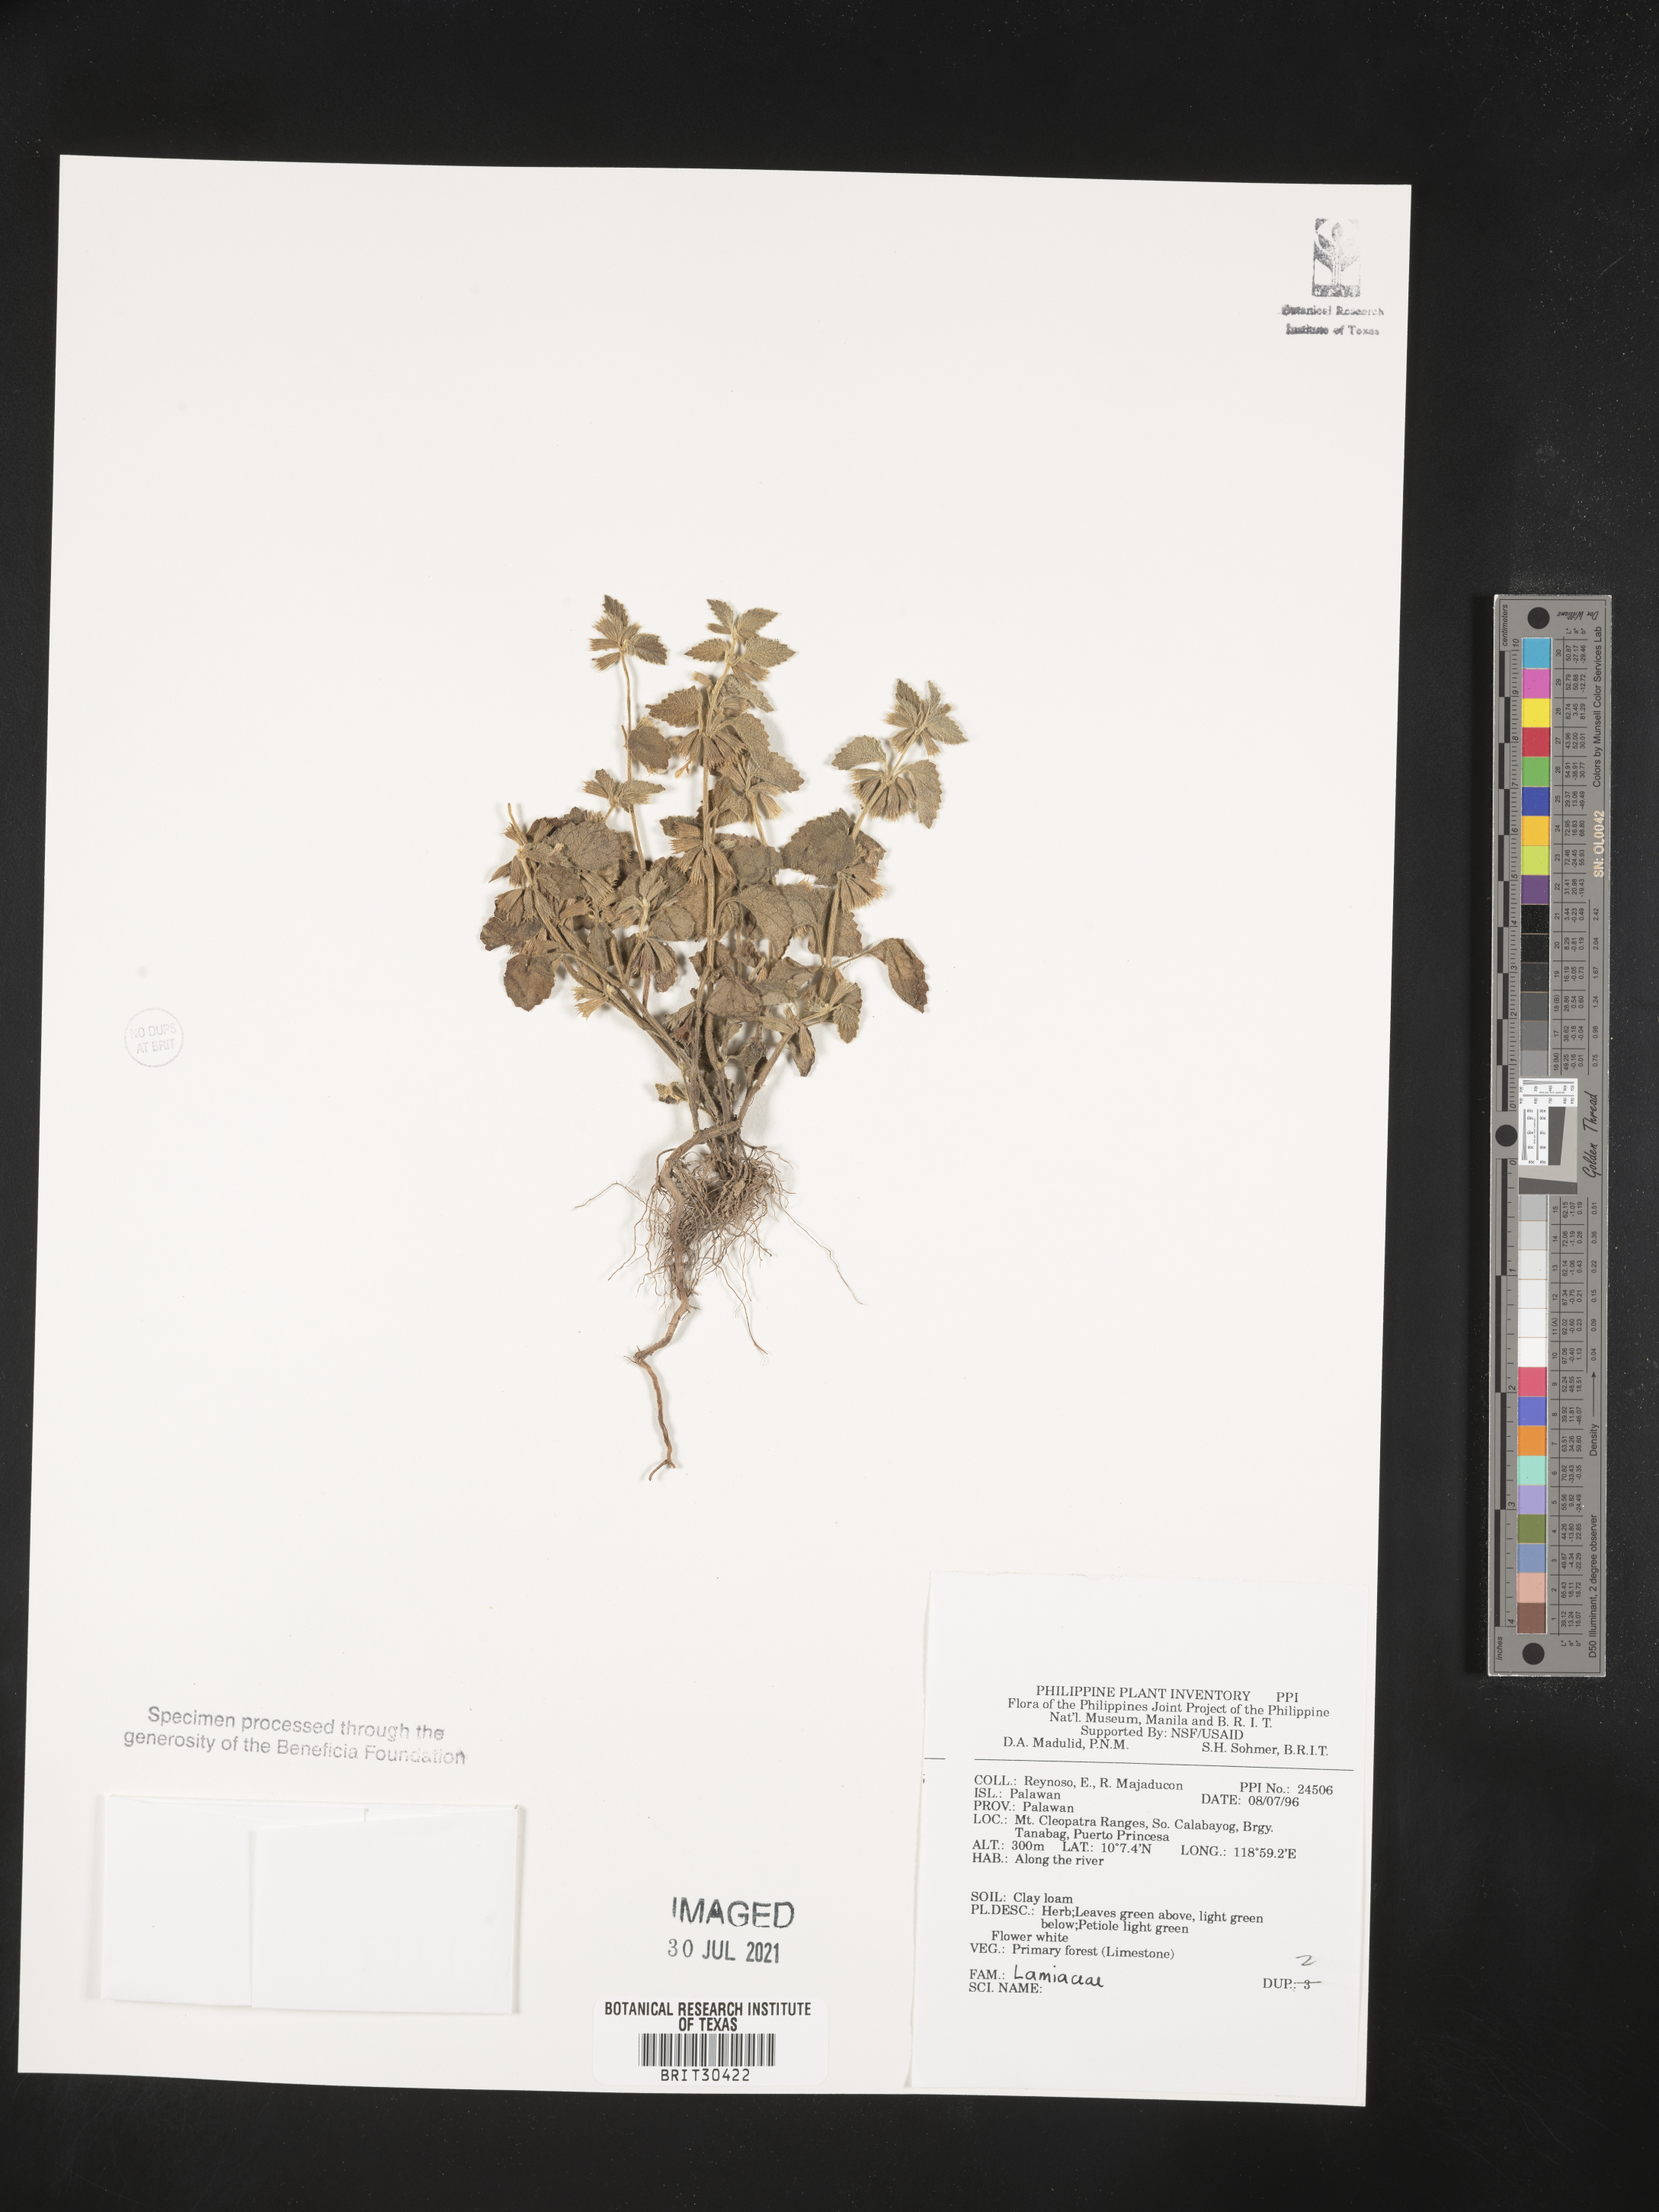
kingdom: Plantae
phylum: Tracheophyta
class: Magnoliopsida
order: Lamiales
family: Lamiaceae
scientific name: Lamiaceae
